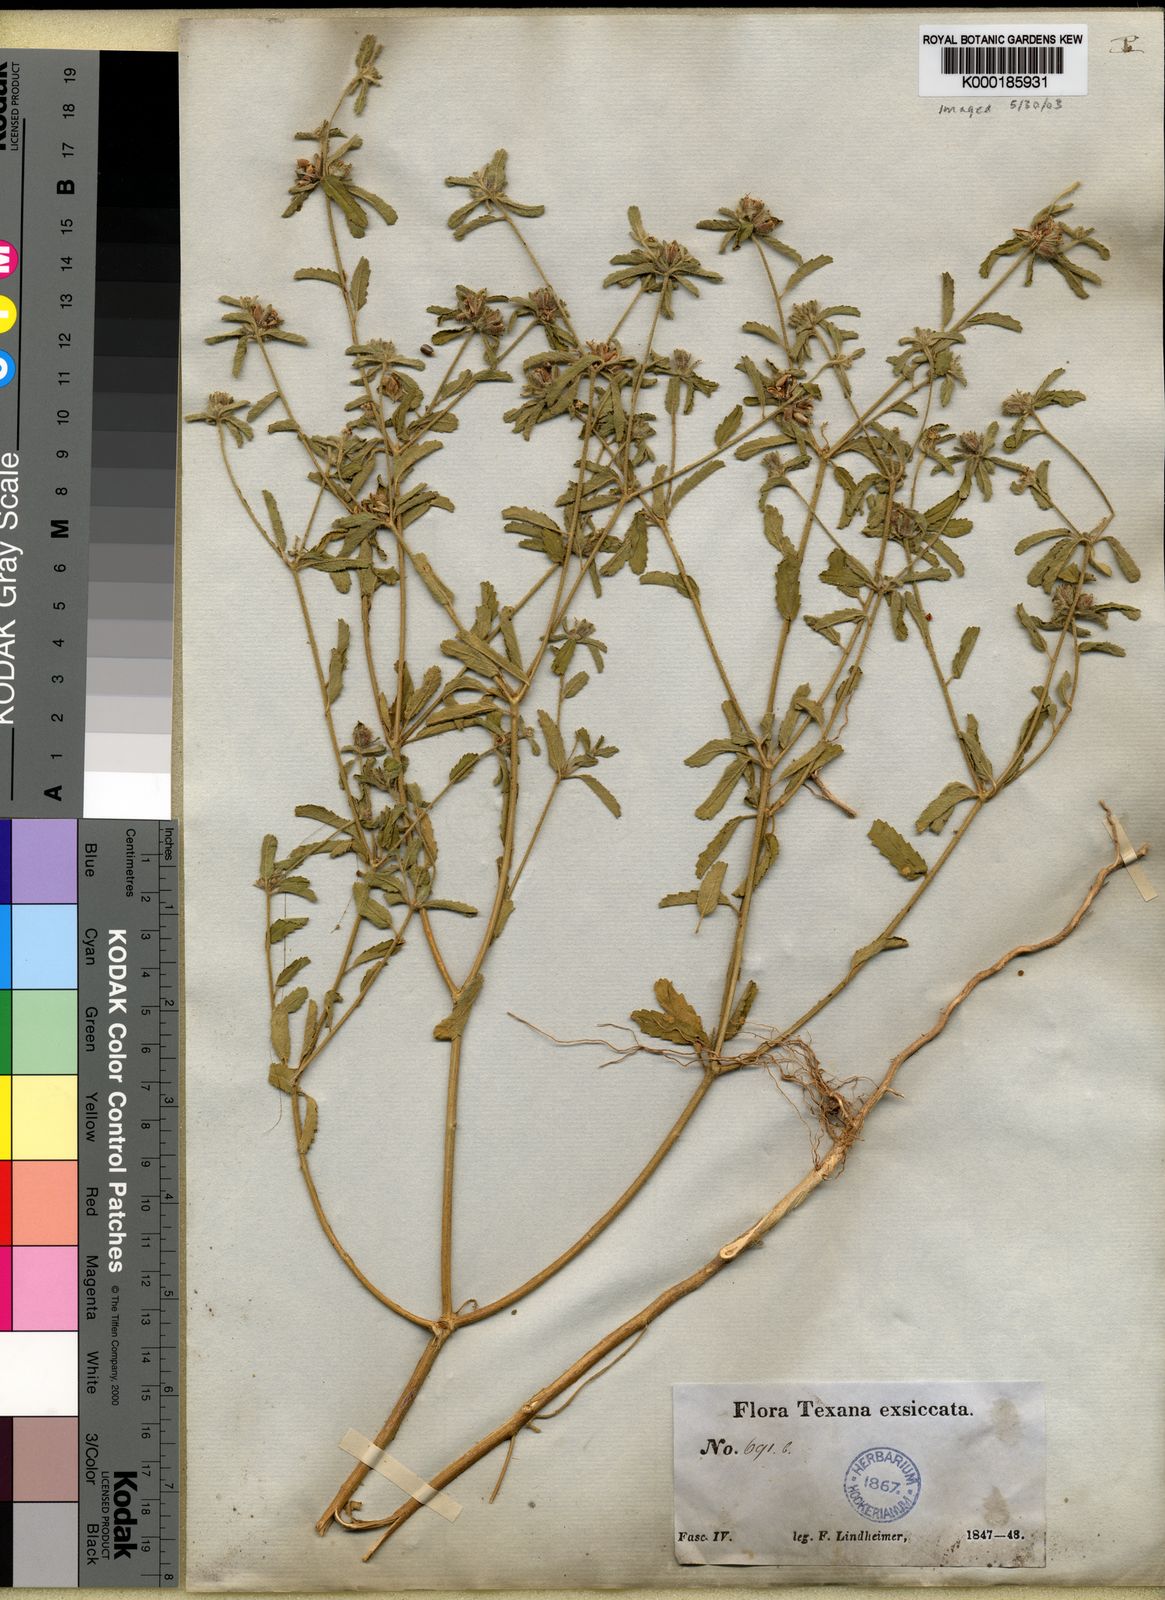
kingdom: Plantae
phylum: Tracheophyta
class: Magnoliopsida
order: Malpighiales
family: Euphorbiaceae
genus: Croton
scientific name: Croton glandulosus
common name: Tropic croton
